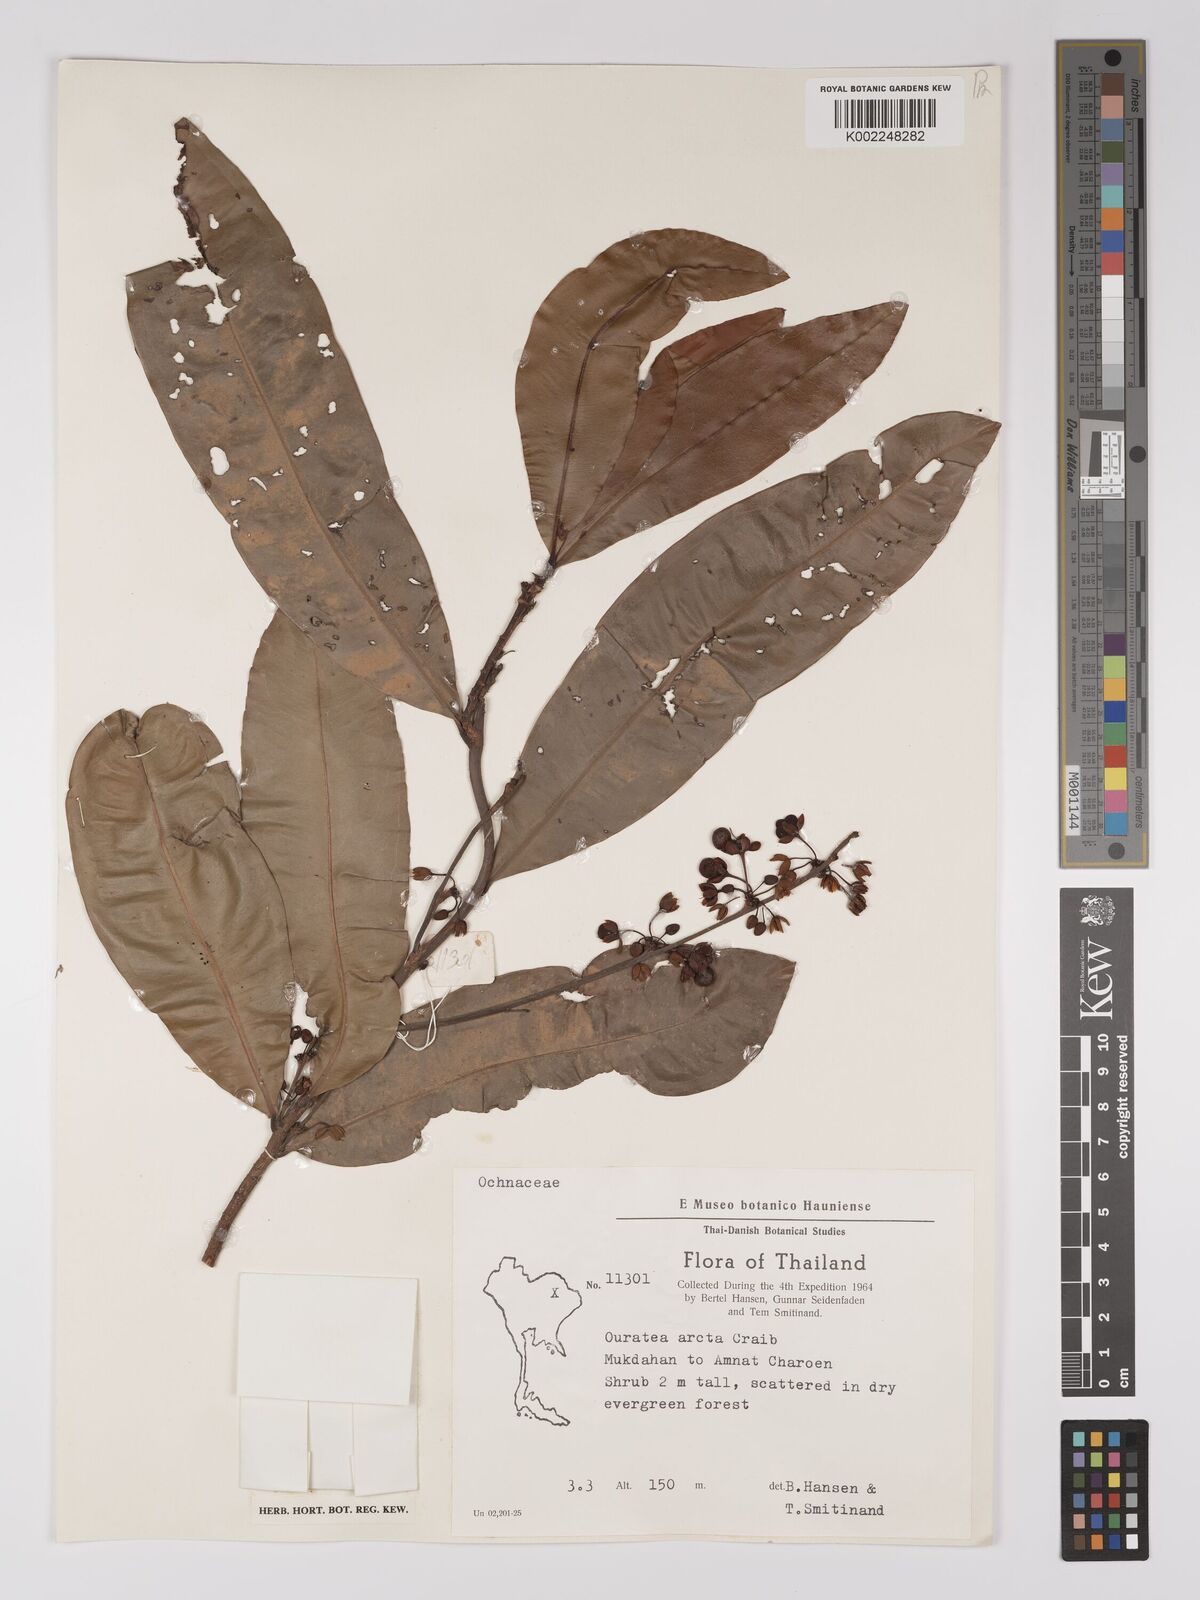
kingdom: Plantae
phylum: Tracheophyta
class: Magnoliopsida
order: Malpighiales
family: Ochnaceae
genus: Gomphia
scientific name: Gomphia serrata
